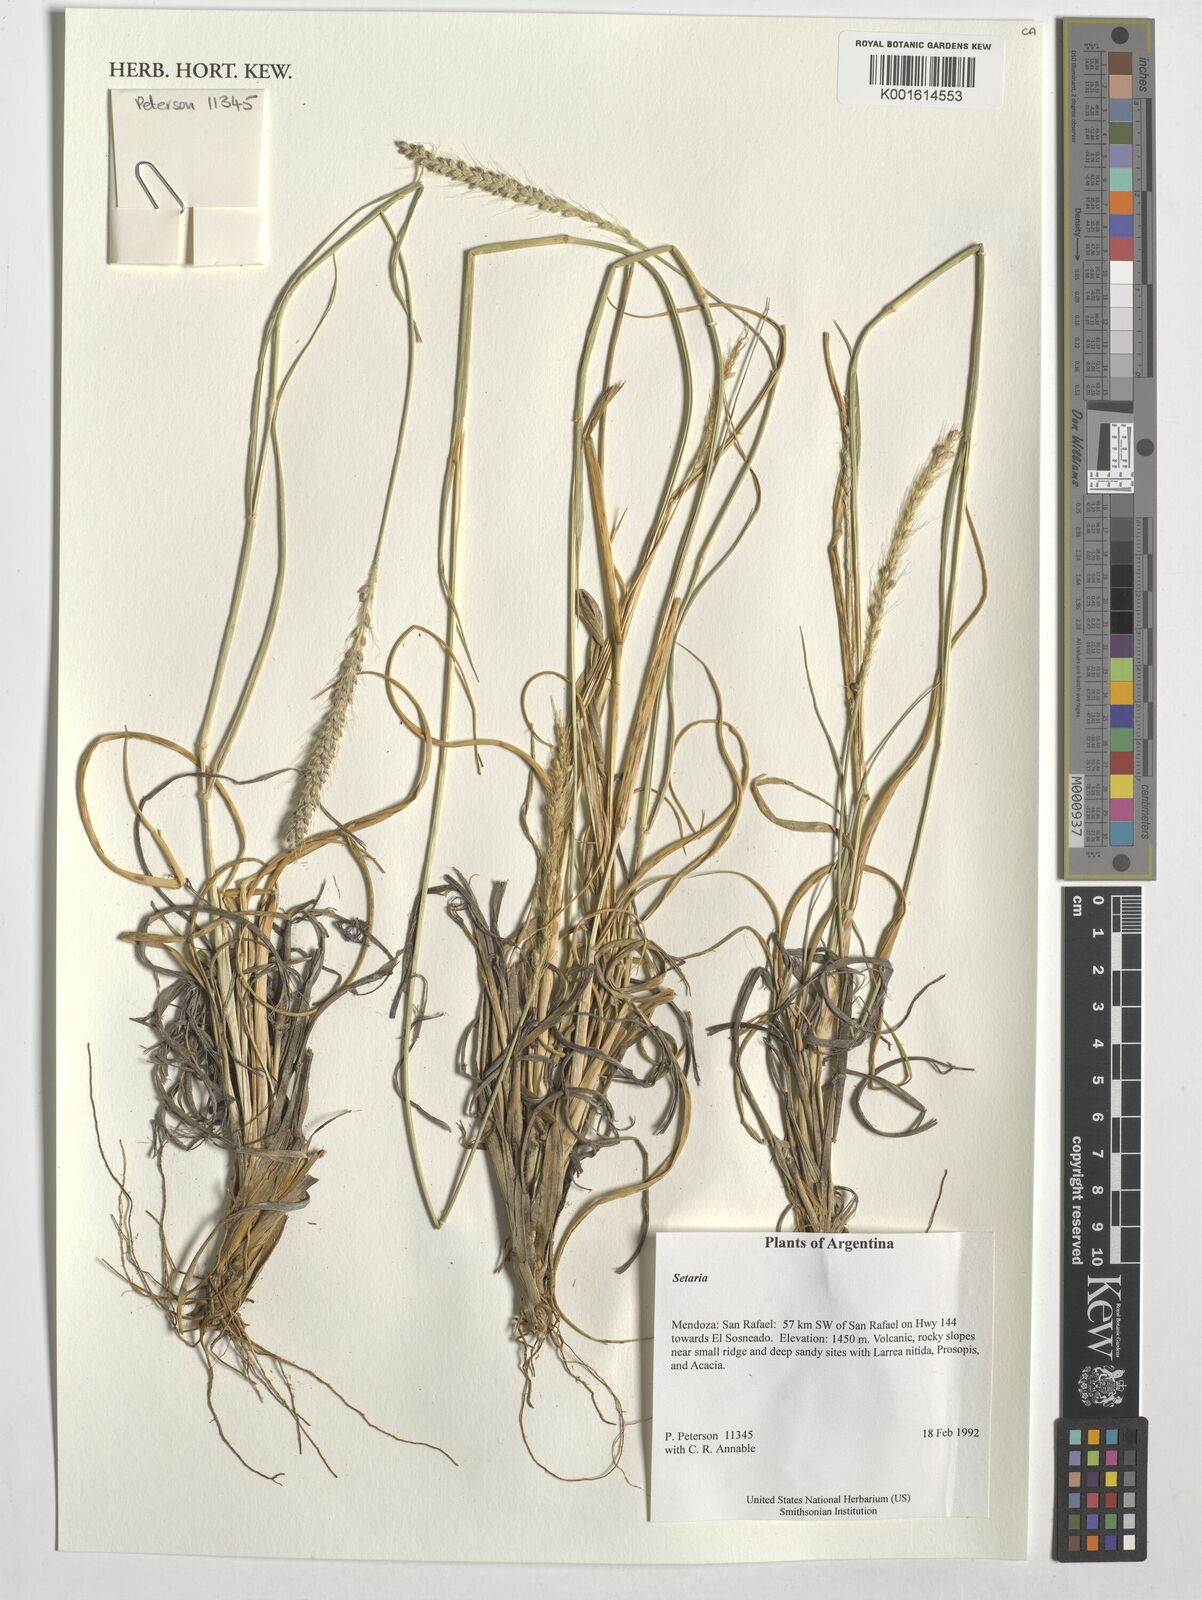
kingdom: Plantae
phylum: Tracheophyta
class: Liliopsida
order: Poales
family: Poaceae
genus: Setaria
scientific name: Setaria
